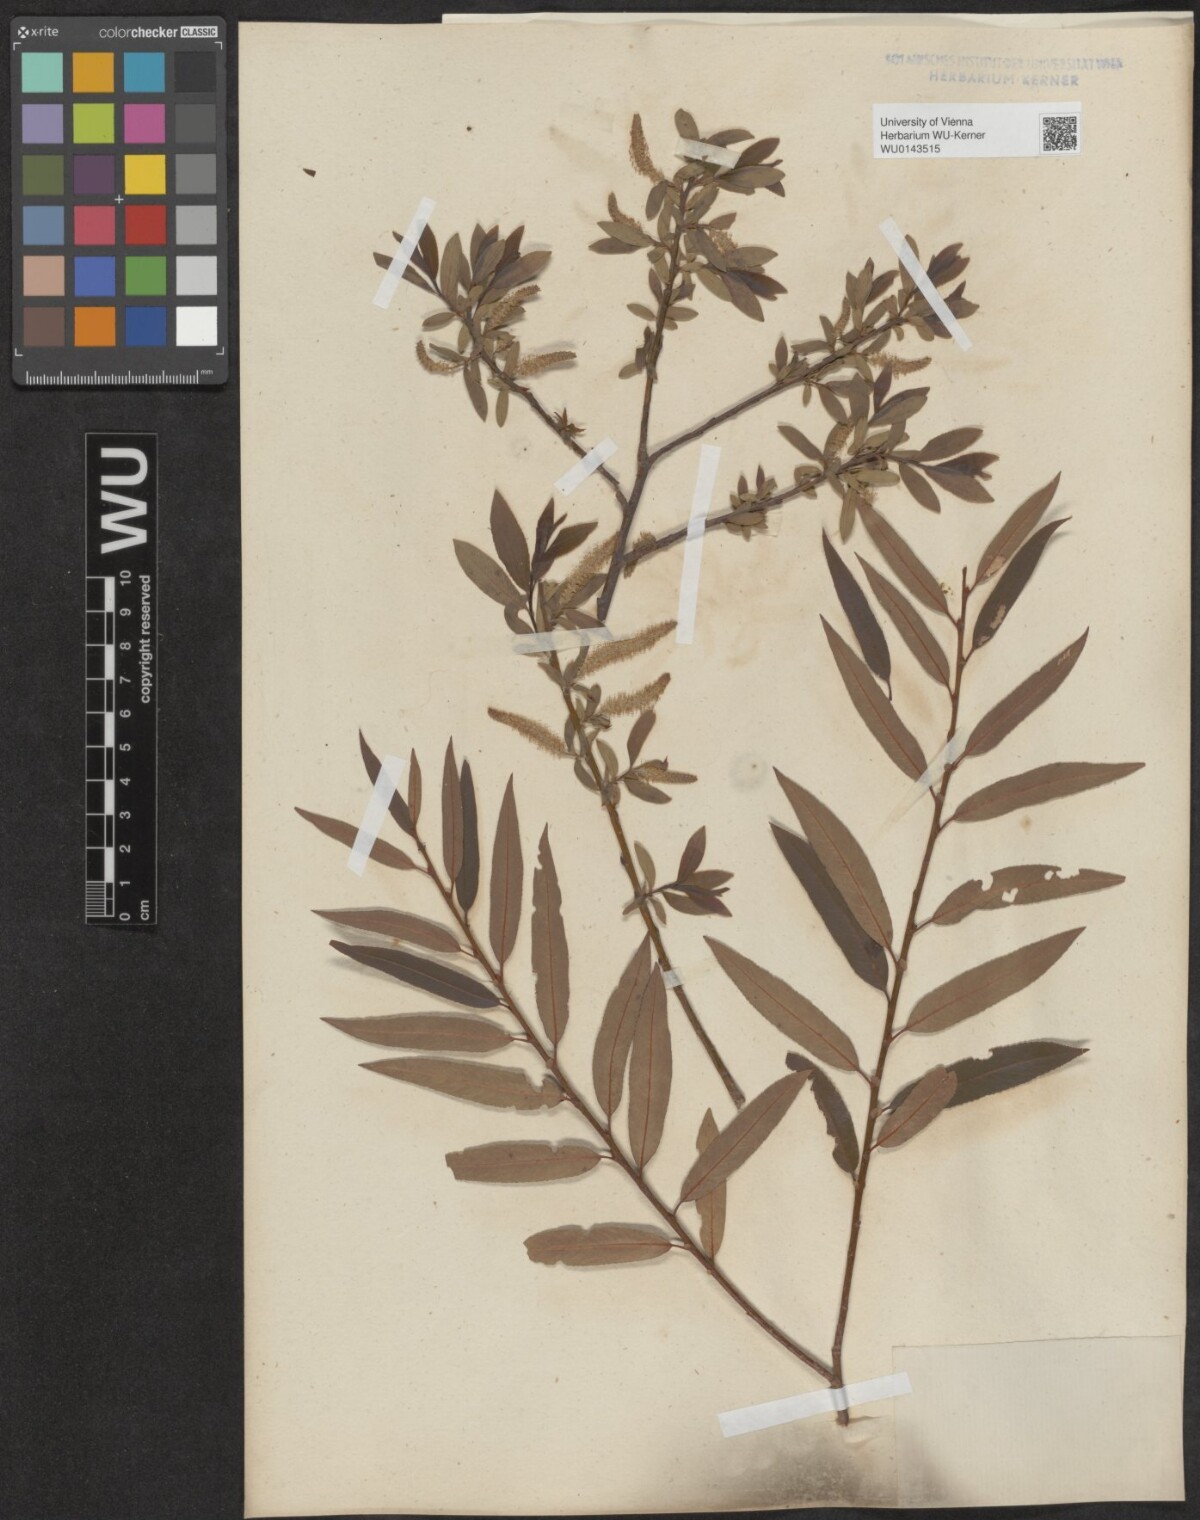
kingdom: Plantae
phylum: Tracheophyta
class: Magnoliopsida
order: Malpighiales
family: Salicaceae
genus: Salix
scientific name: Salix triandra
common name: Almond willow
